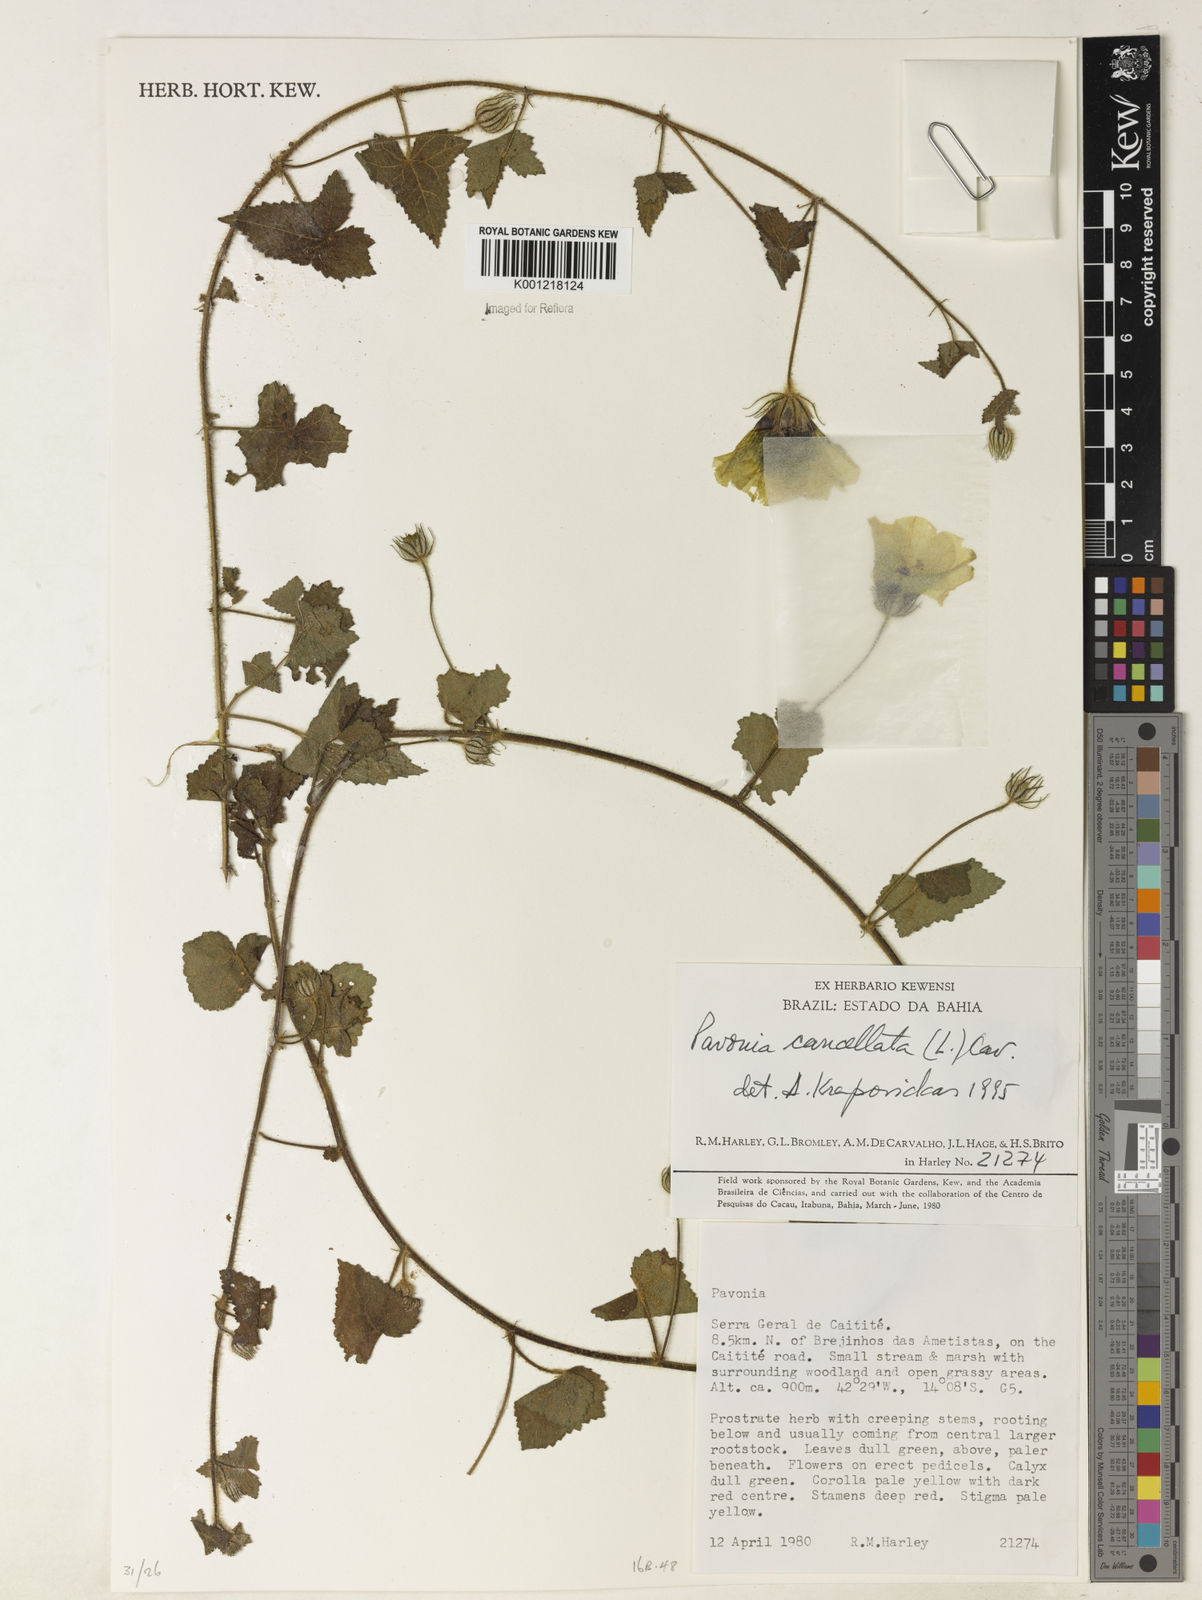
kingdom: Plantae
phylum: Tracheophyta
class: Magnoliopsida
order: Malvales
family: Malvaceae
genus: Pavonia
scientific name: Pavonia cancellata
